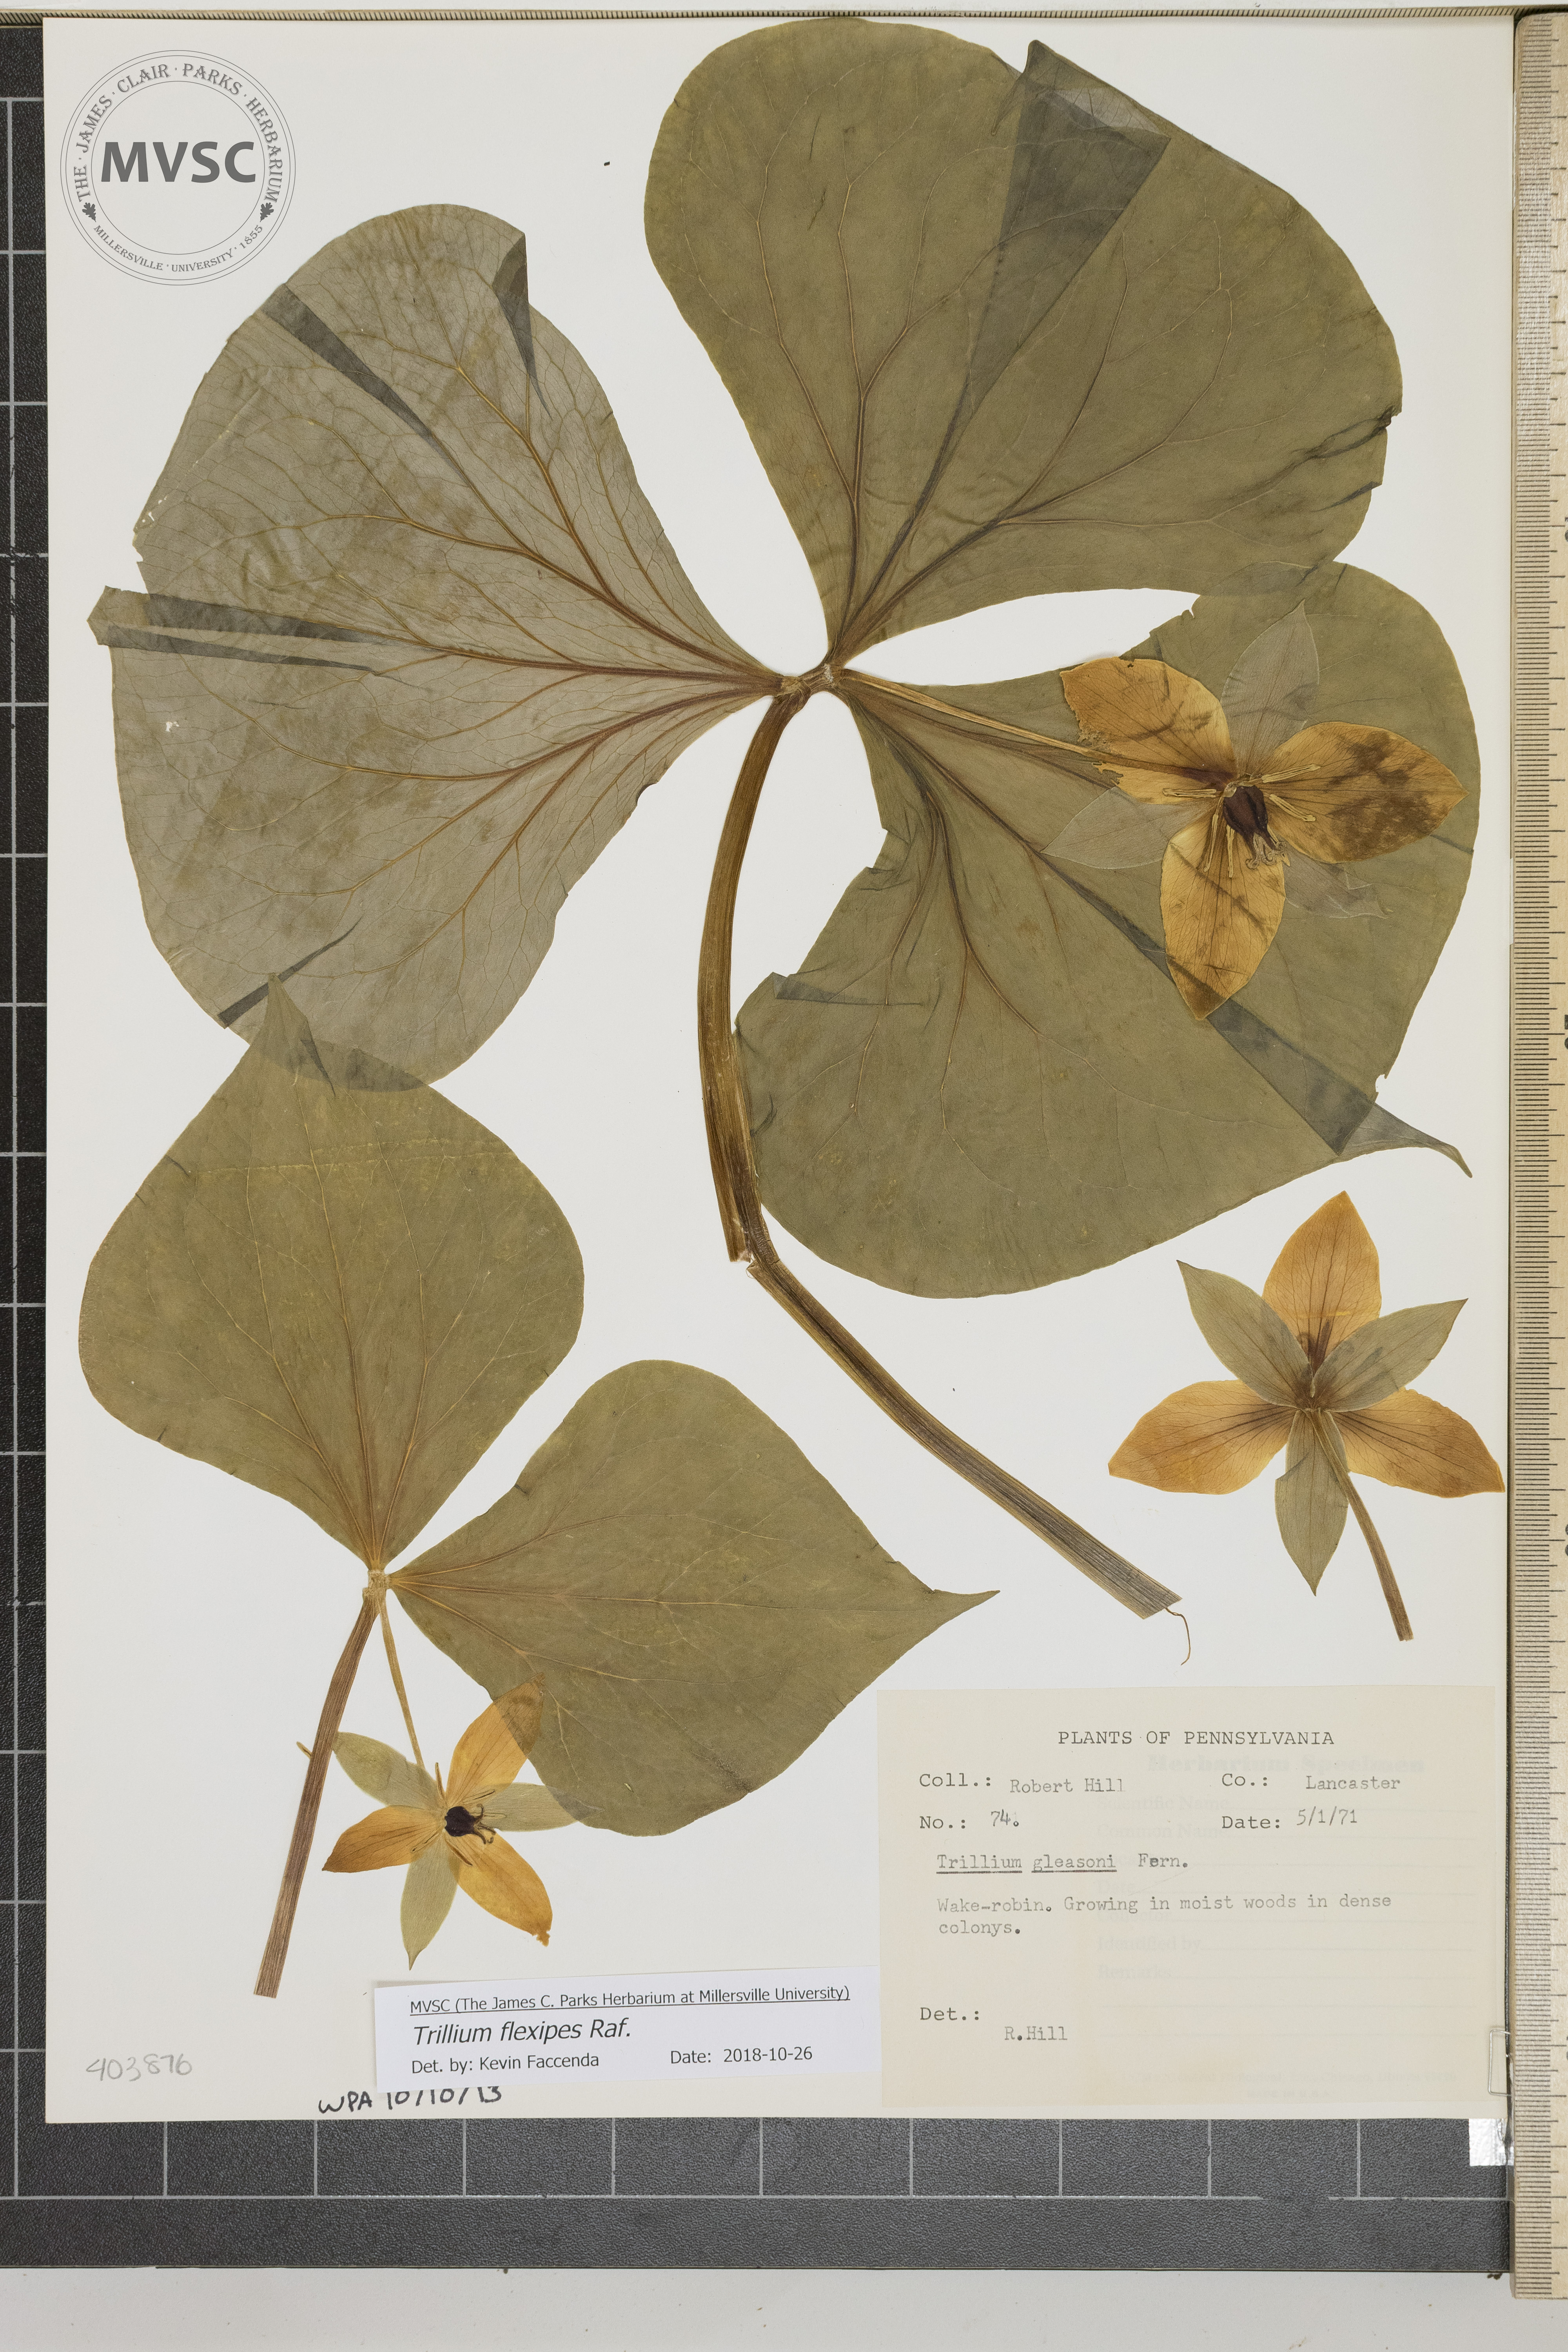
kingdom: Plantae
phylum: Tracheophyta
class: Liliopsida
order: Liliales
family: Melanthiaceae
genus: Trillium
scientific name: Trillium flexipes
